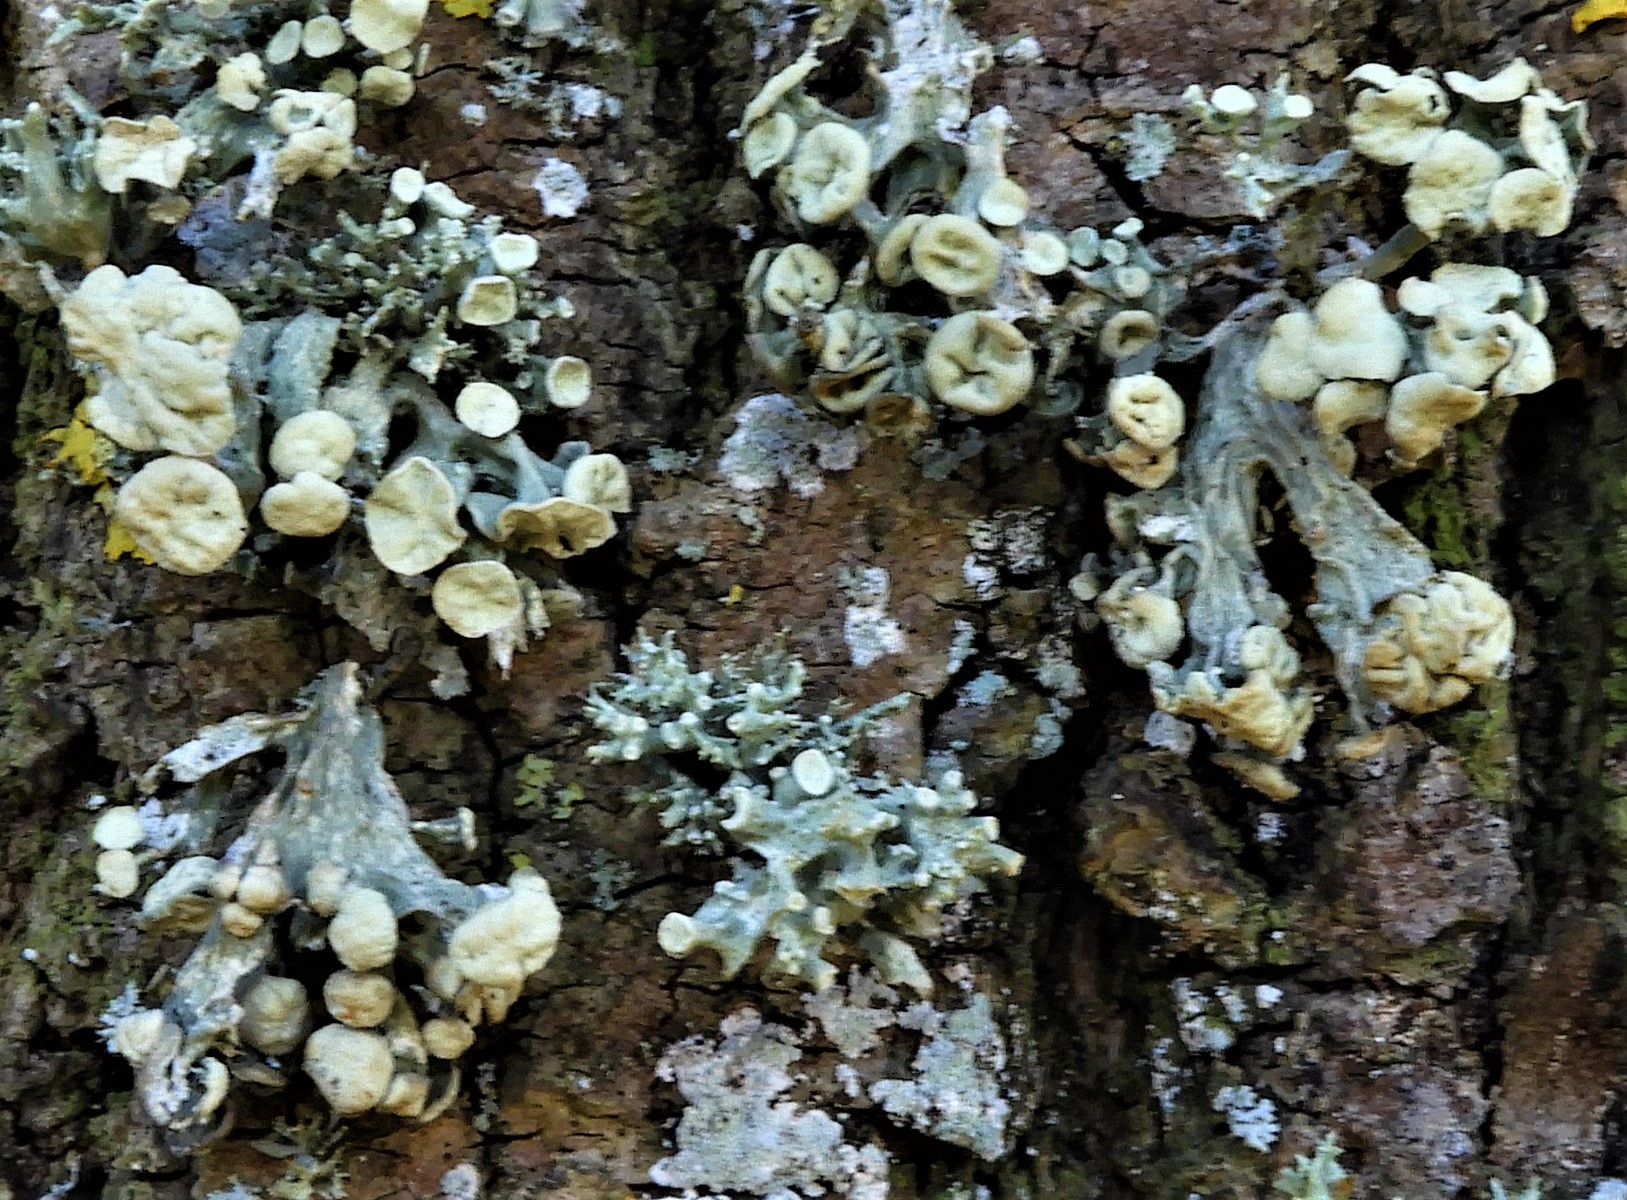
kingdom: Fungi
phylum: Ascomycota
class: Lecanoromycetes
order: Lecanorales
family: Ramalinaceae
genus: Ramalina
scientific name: Ramalina fastigiata
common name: tue-grenlav
